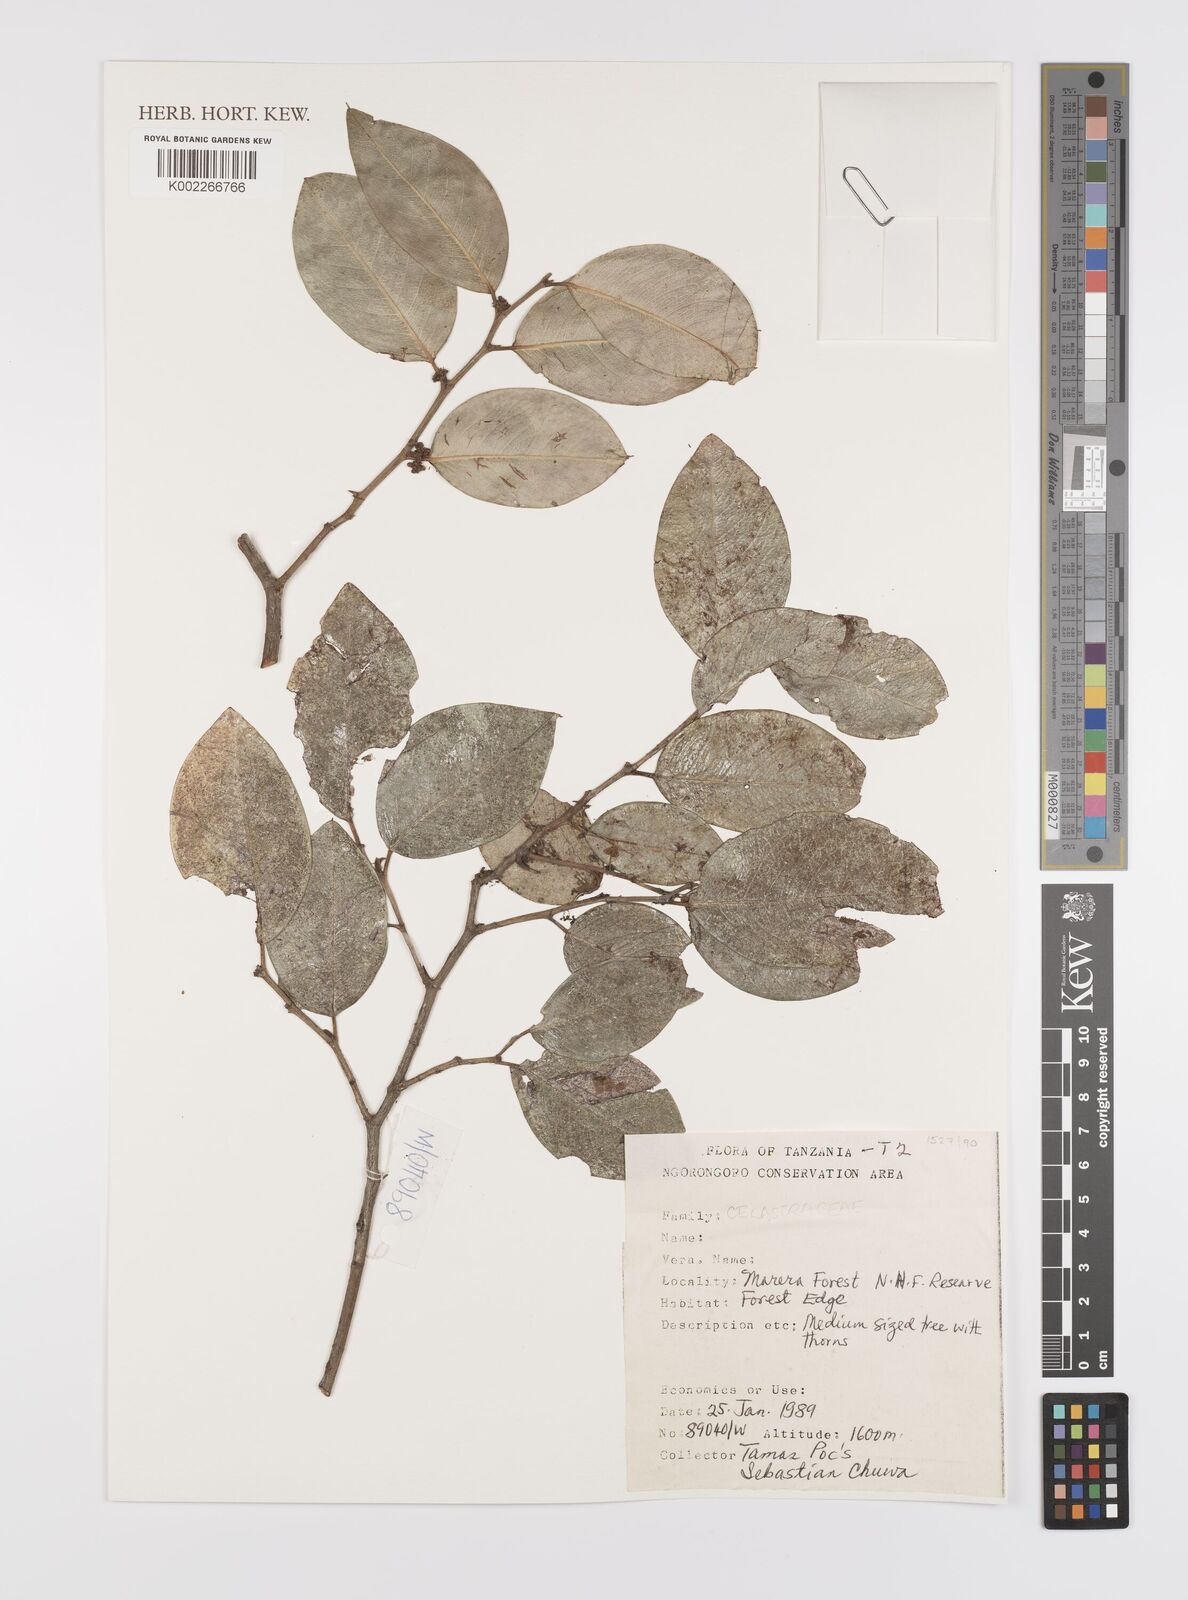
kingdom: Plantae
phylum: Tracheophyta
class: Magnoliopsida
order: Celastrales
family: Celastraceae
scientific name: Celastraceae
